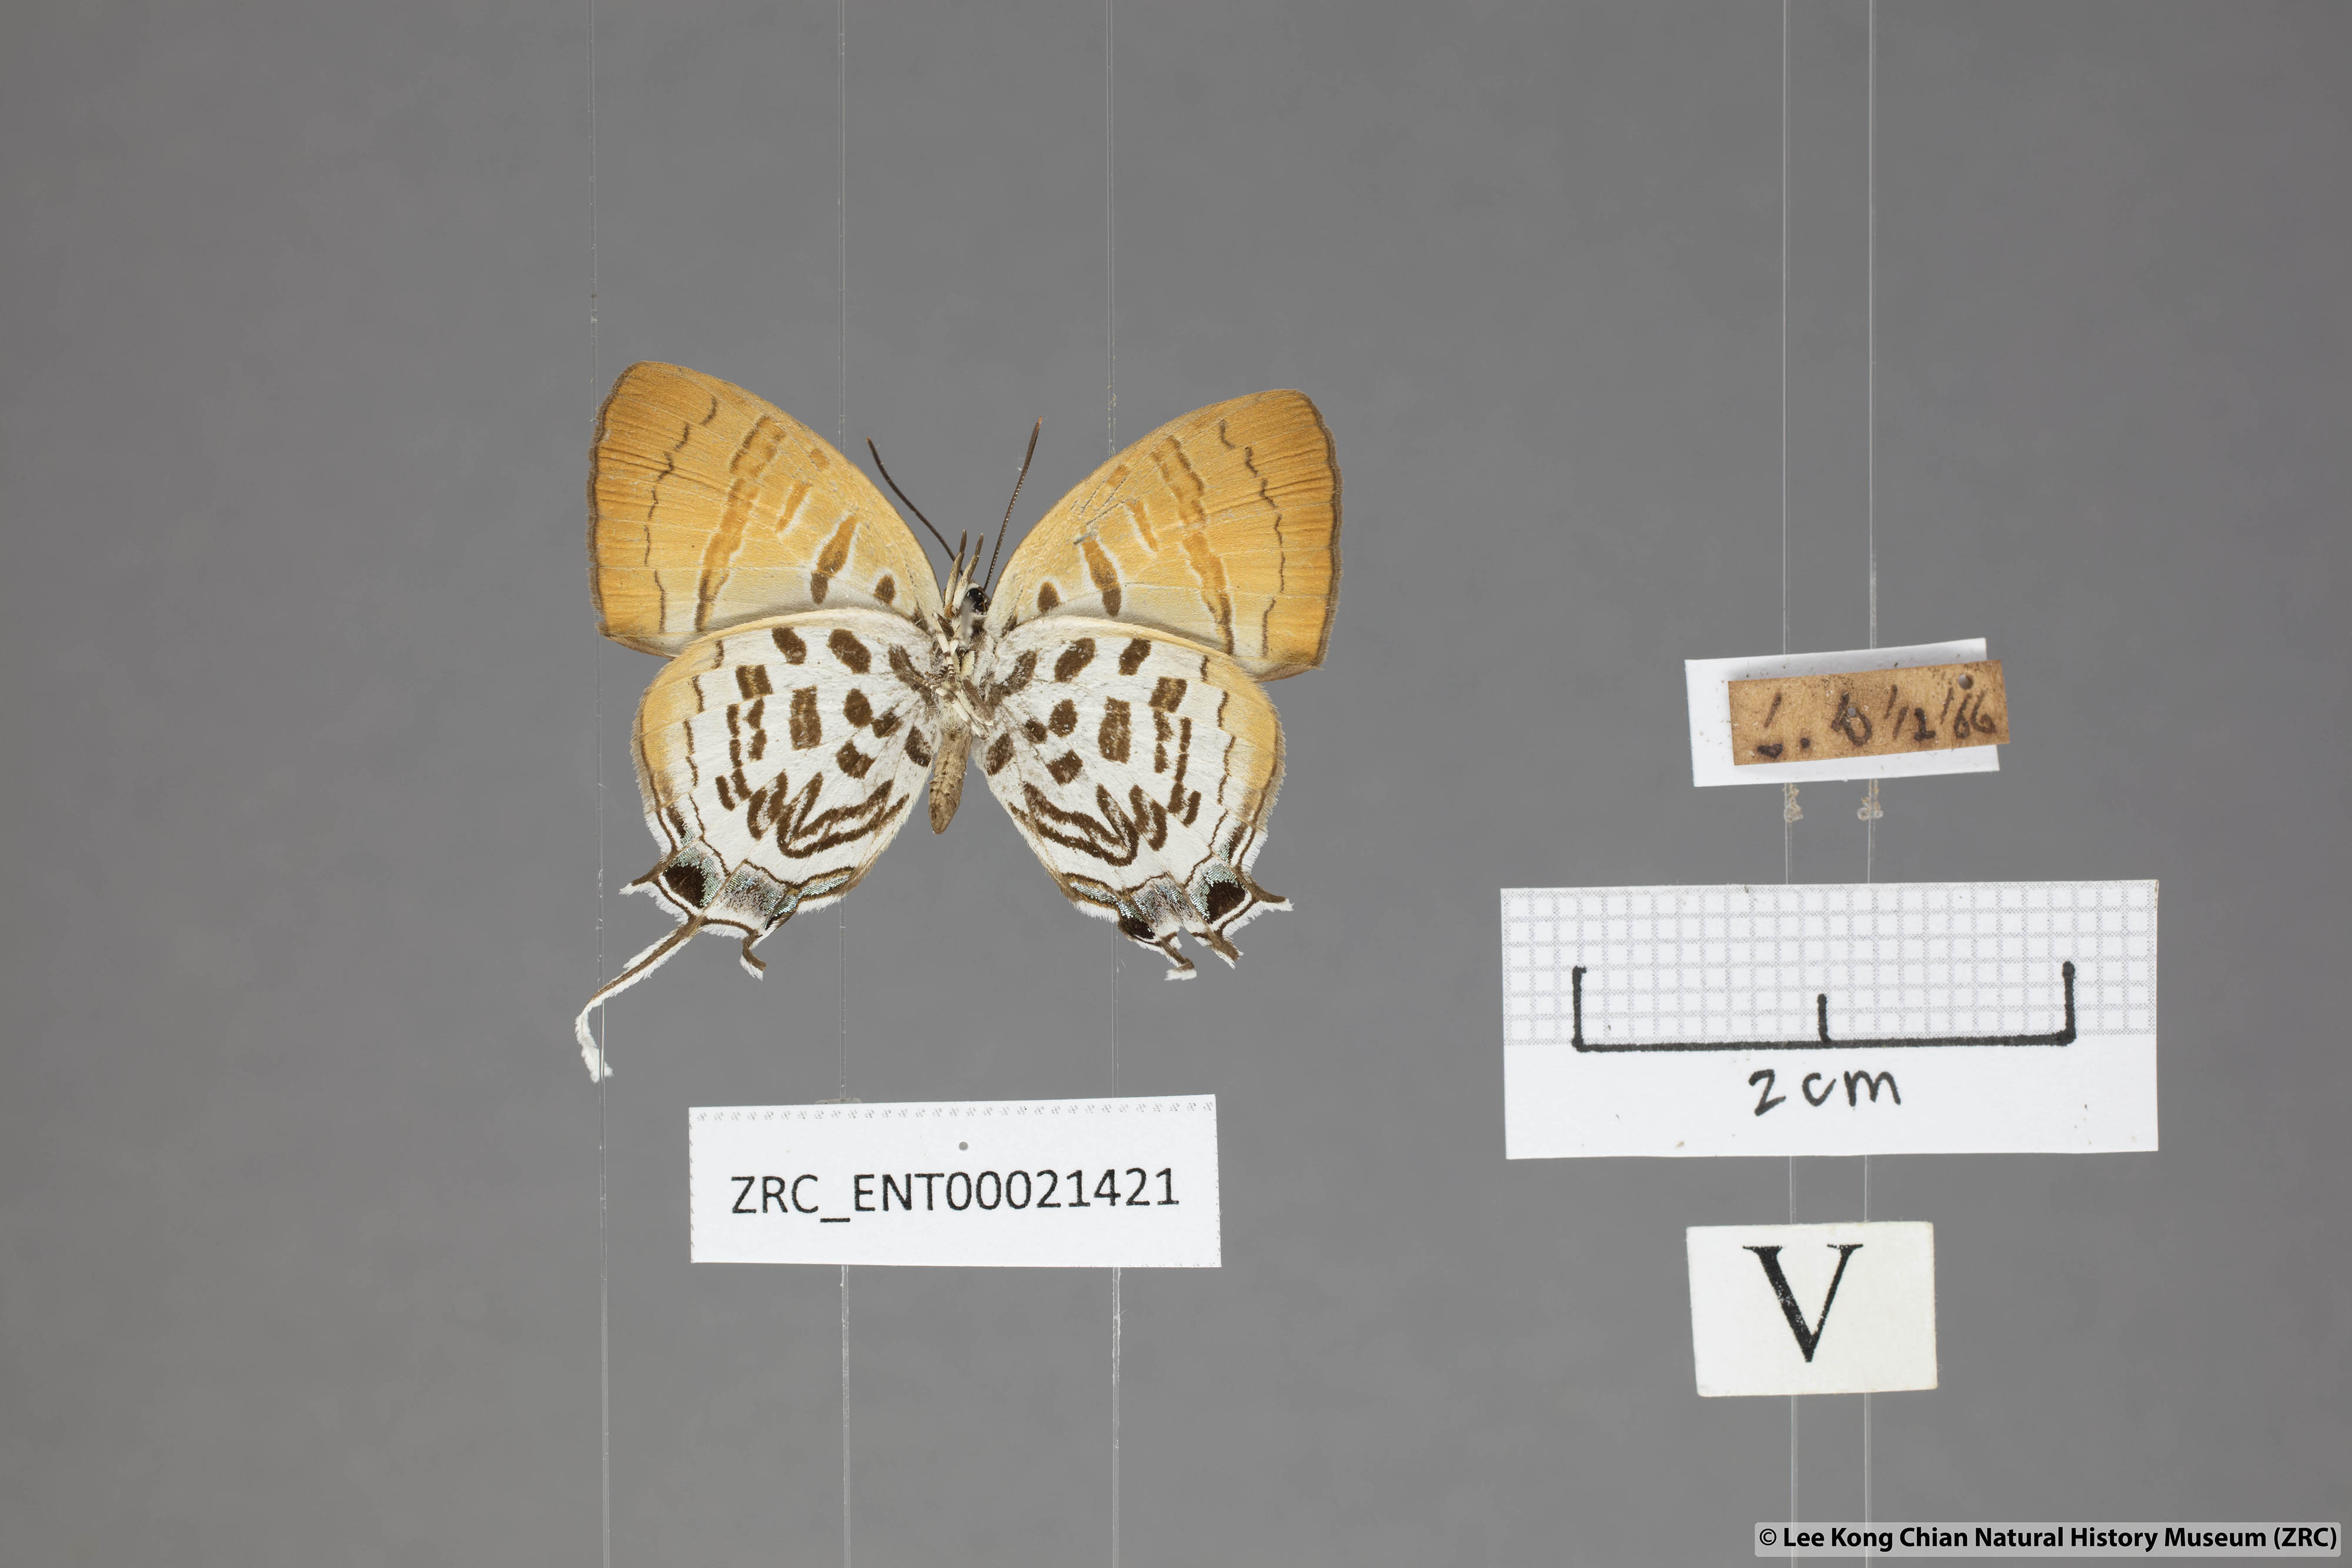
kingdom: Animalia
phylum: Arthropoda
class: Insecta
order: Lepidoptera
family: Lycaenidae
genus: Drupadia
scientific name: Drupadia theda
